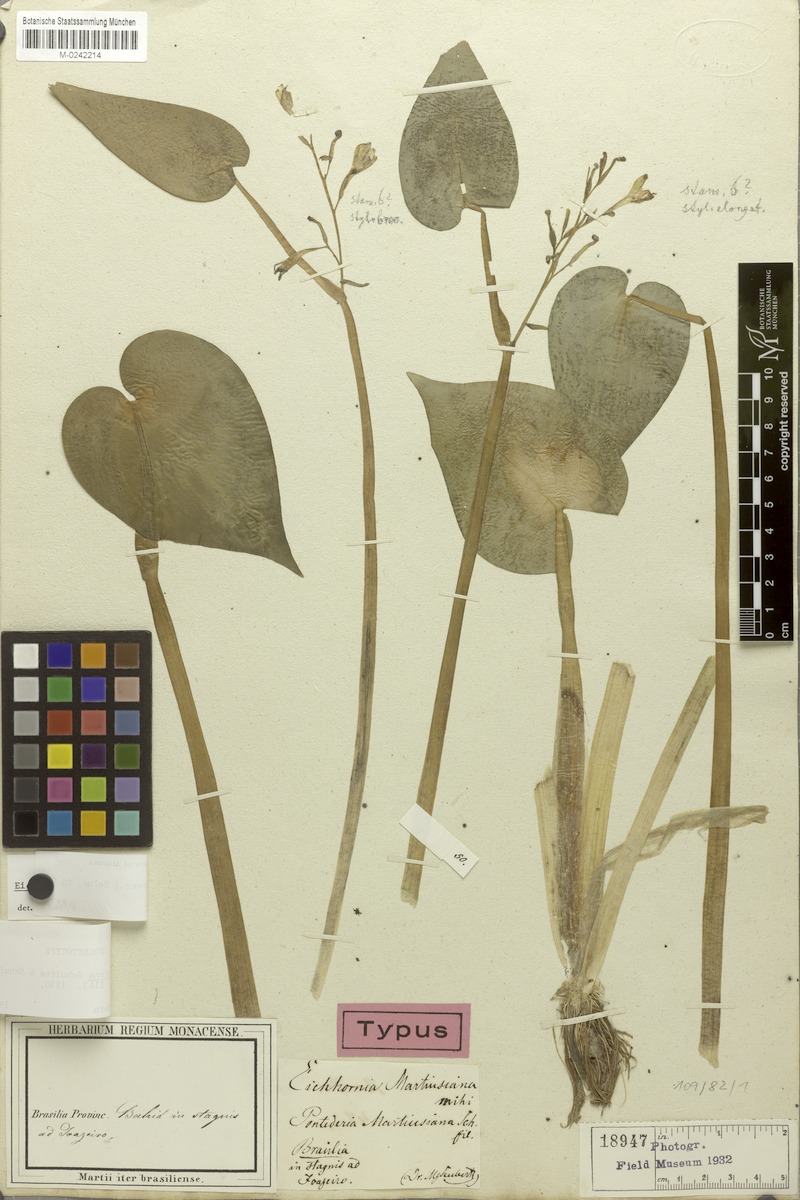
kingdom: Plantae
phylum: Tracheophyta
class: Liliopsida
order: Commelinales
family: Pontederiaceae
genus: Pontederia
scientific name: Pontederia paniculata
